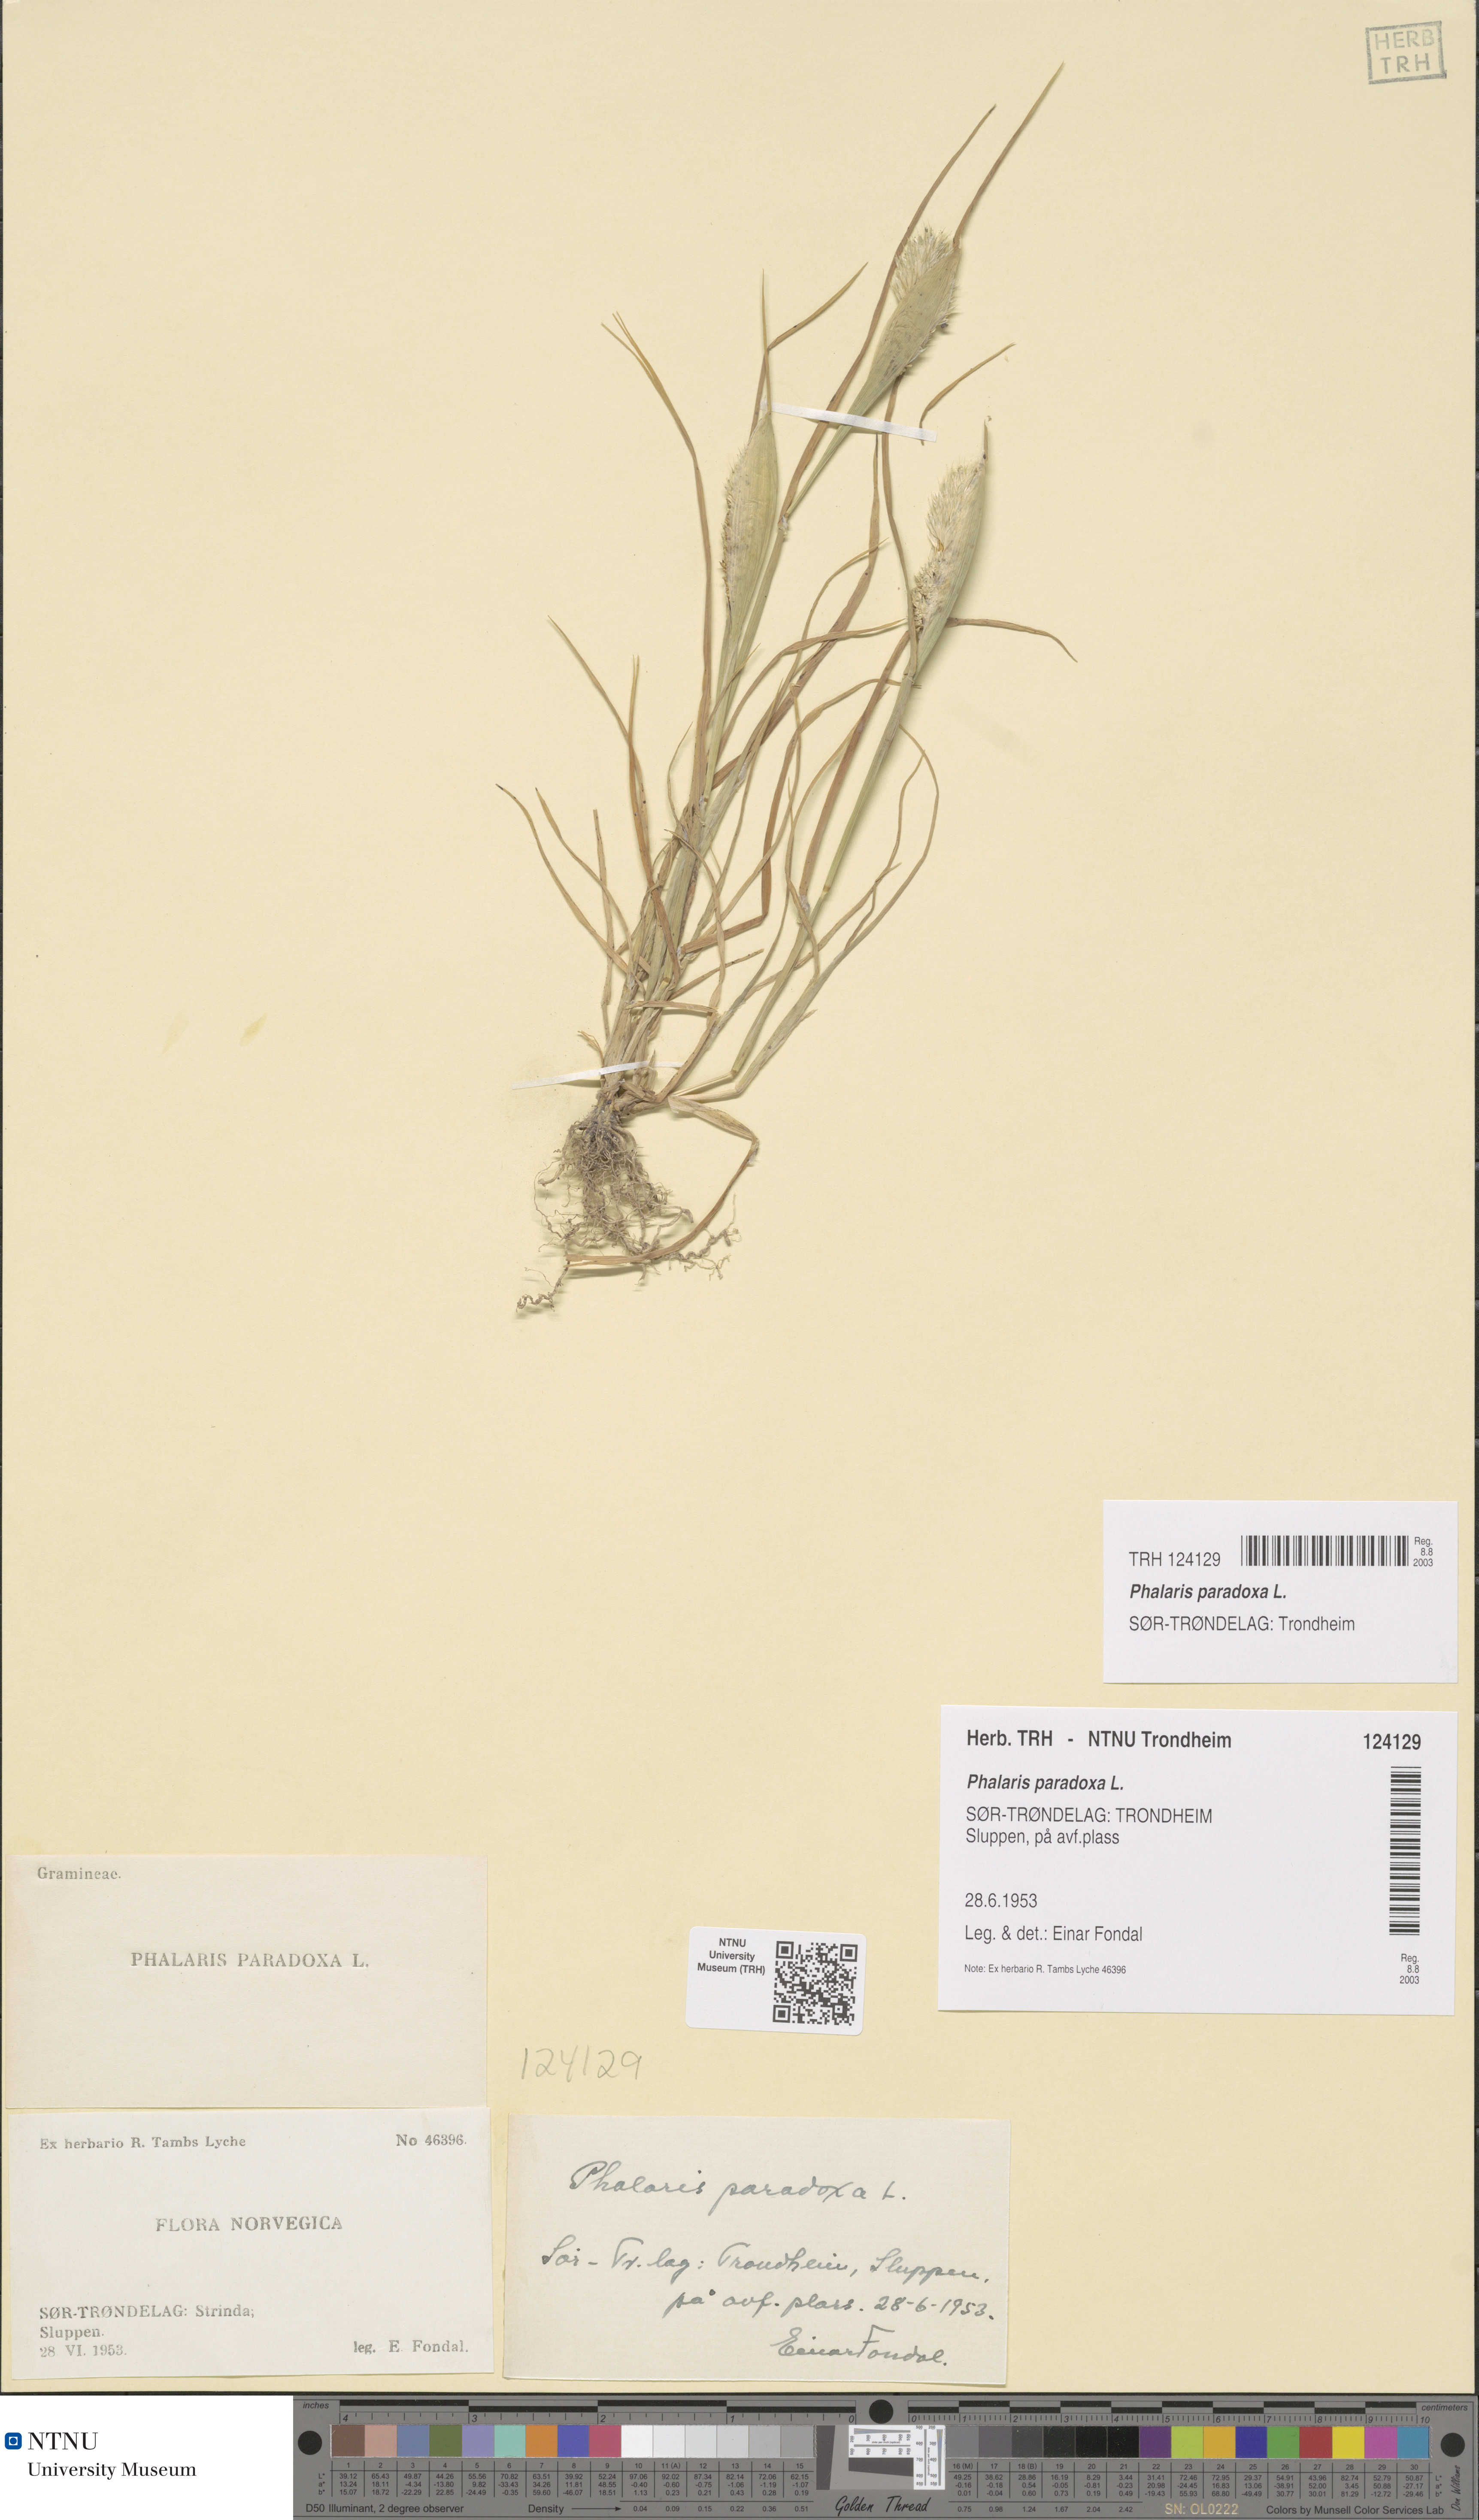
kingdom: Plantae
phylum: Tracheophyta
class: Liliopsida
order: Poales
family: Poaceae
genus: Phalaris
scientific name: Phalaris paradoxa
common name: Awned canary-grass
